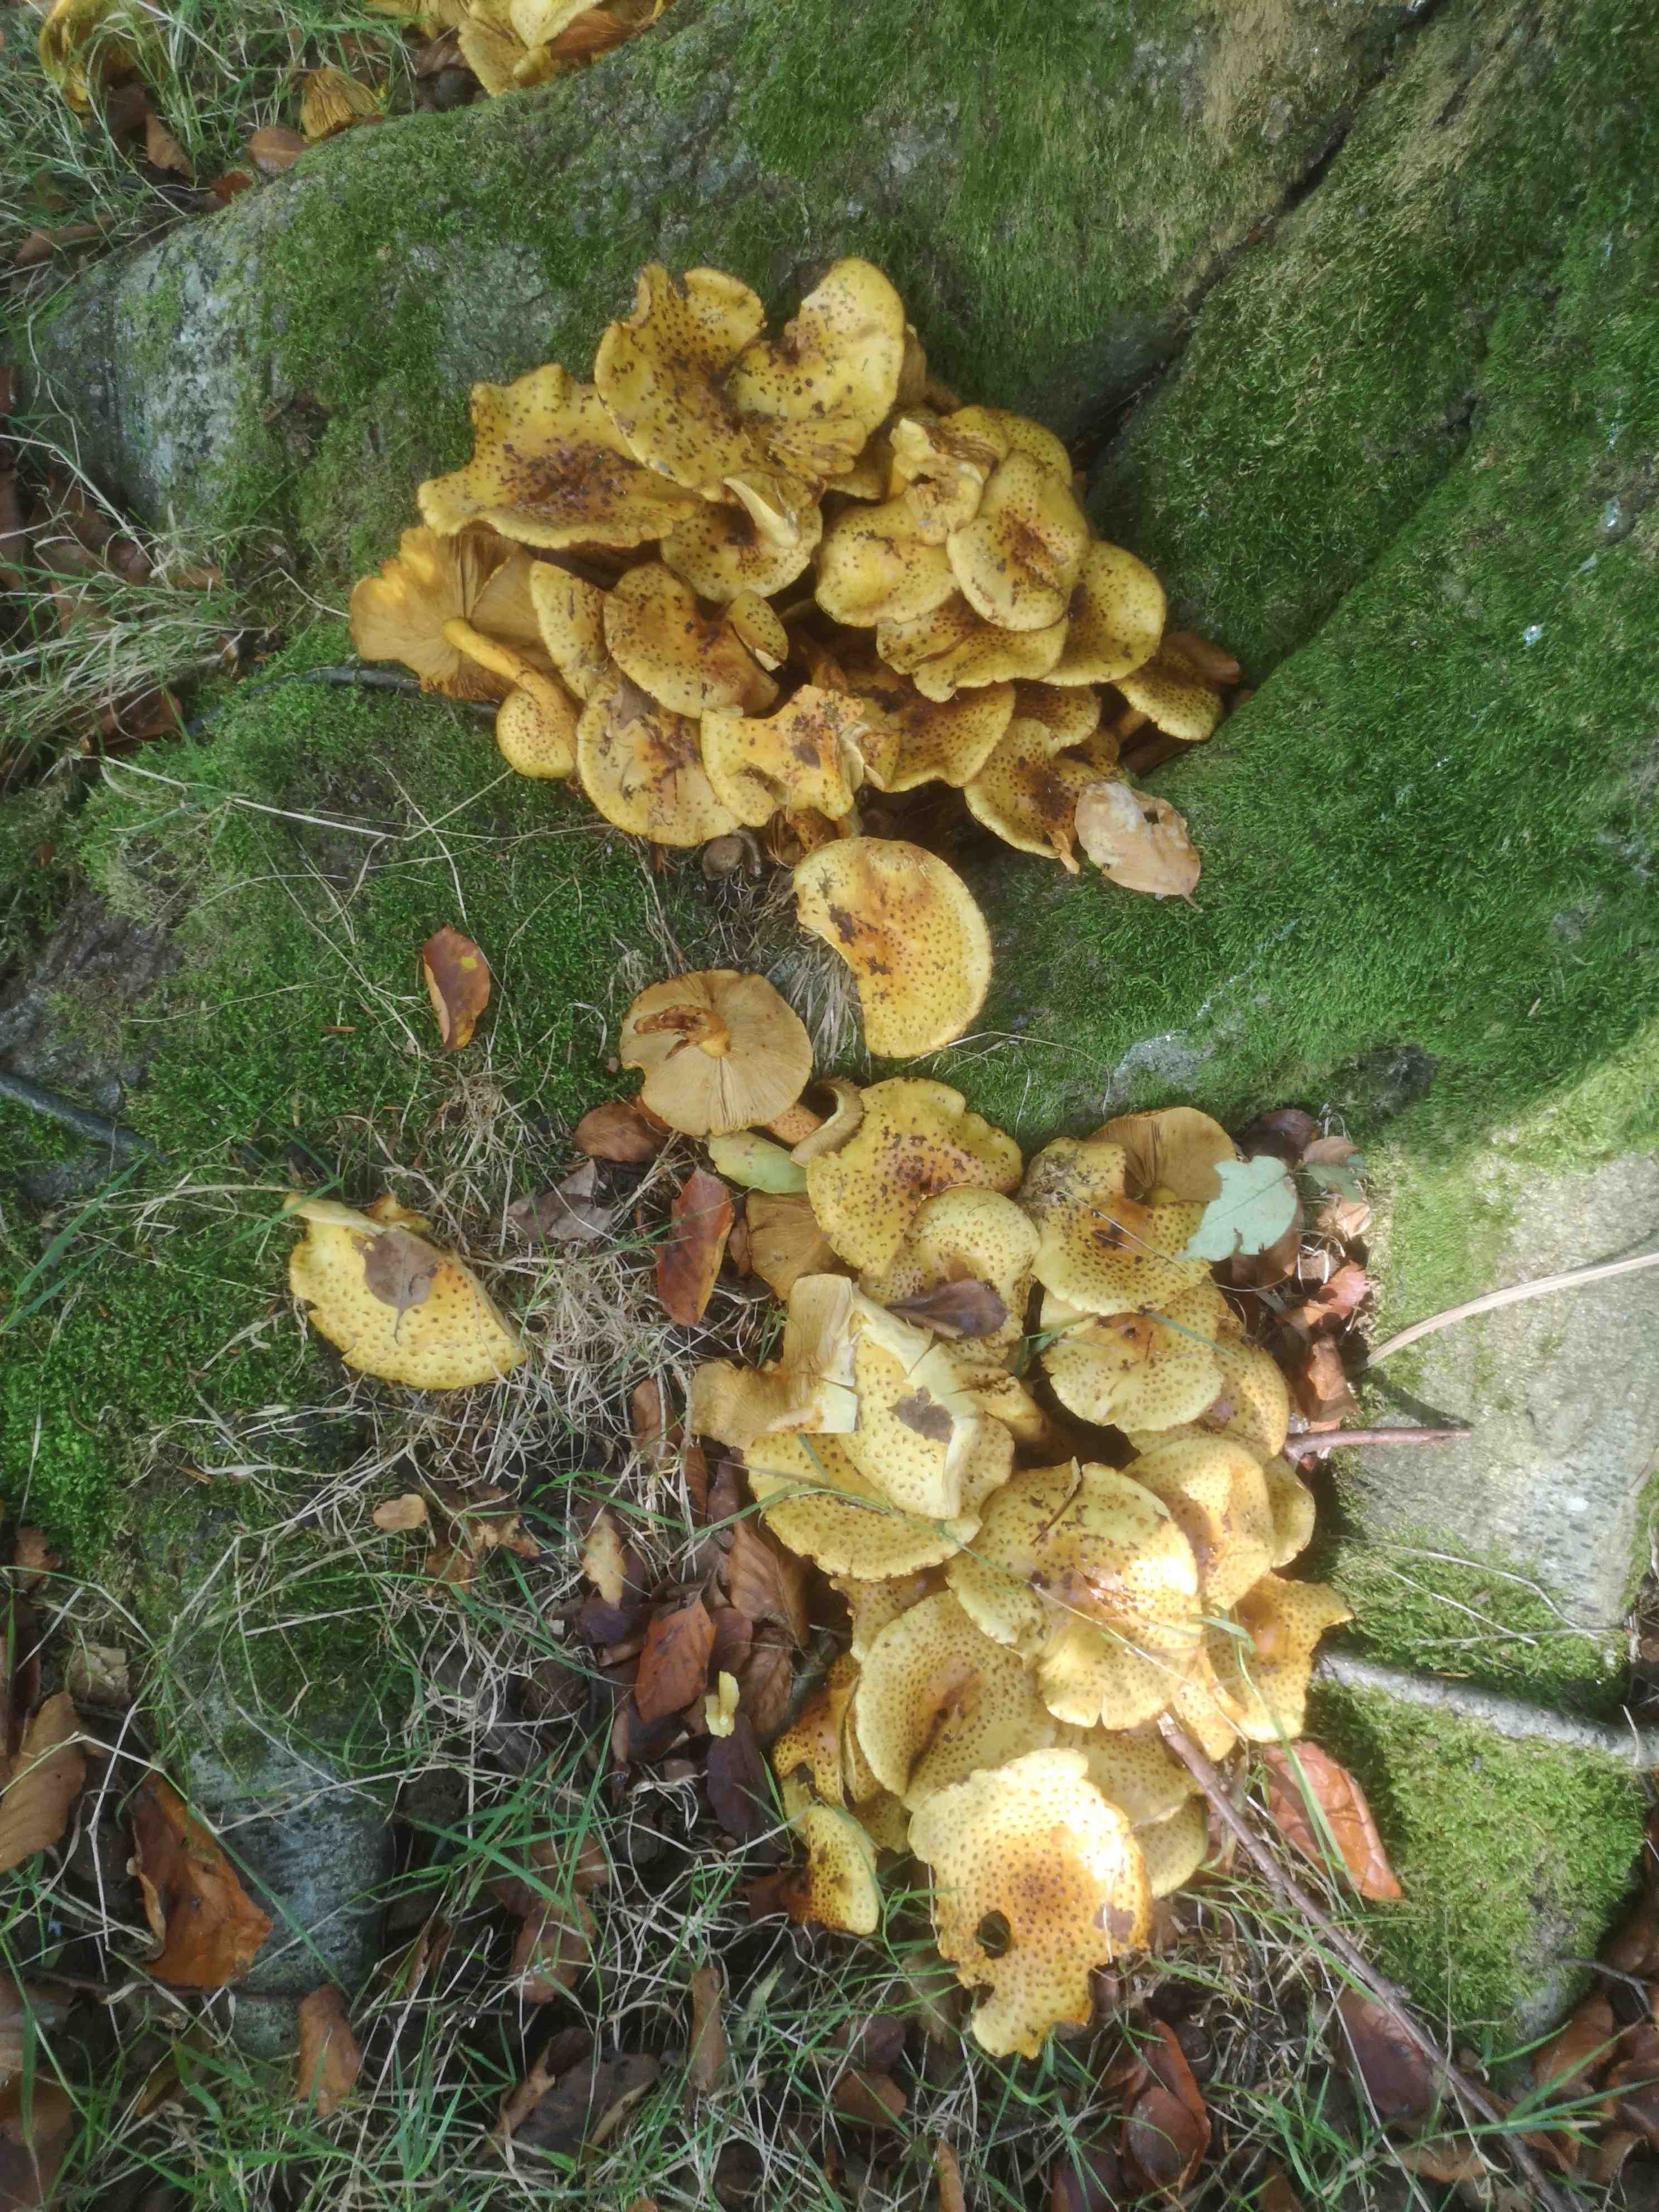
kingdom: Fungi
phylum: Basidiomycota
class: Agaricomycetes
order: Agaricales
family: Strophariaceae
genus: Pholiota
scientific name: Pholiota jahnii
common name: slimet skælhat
